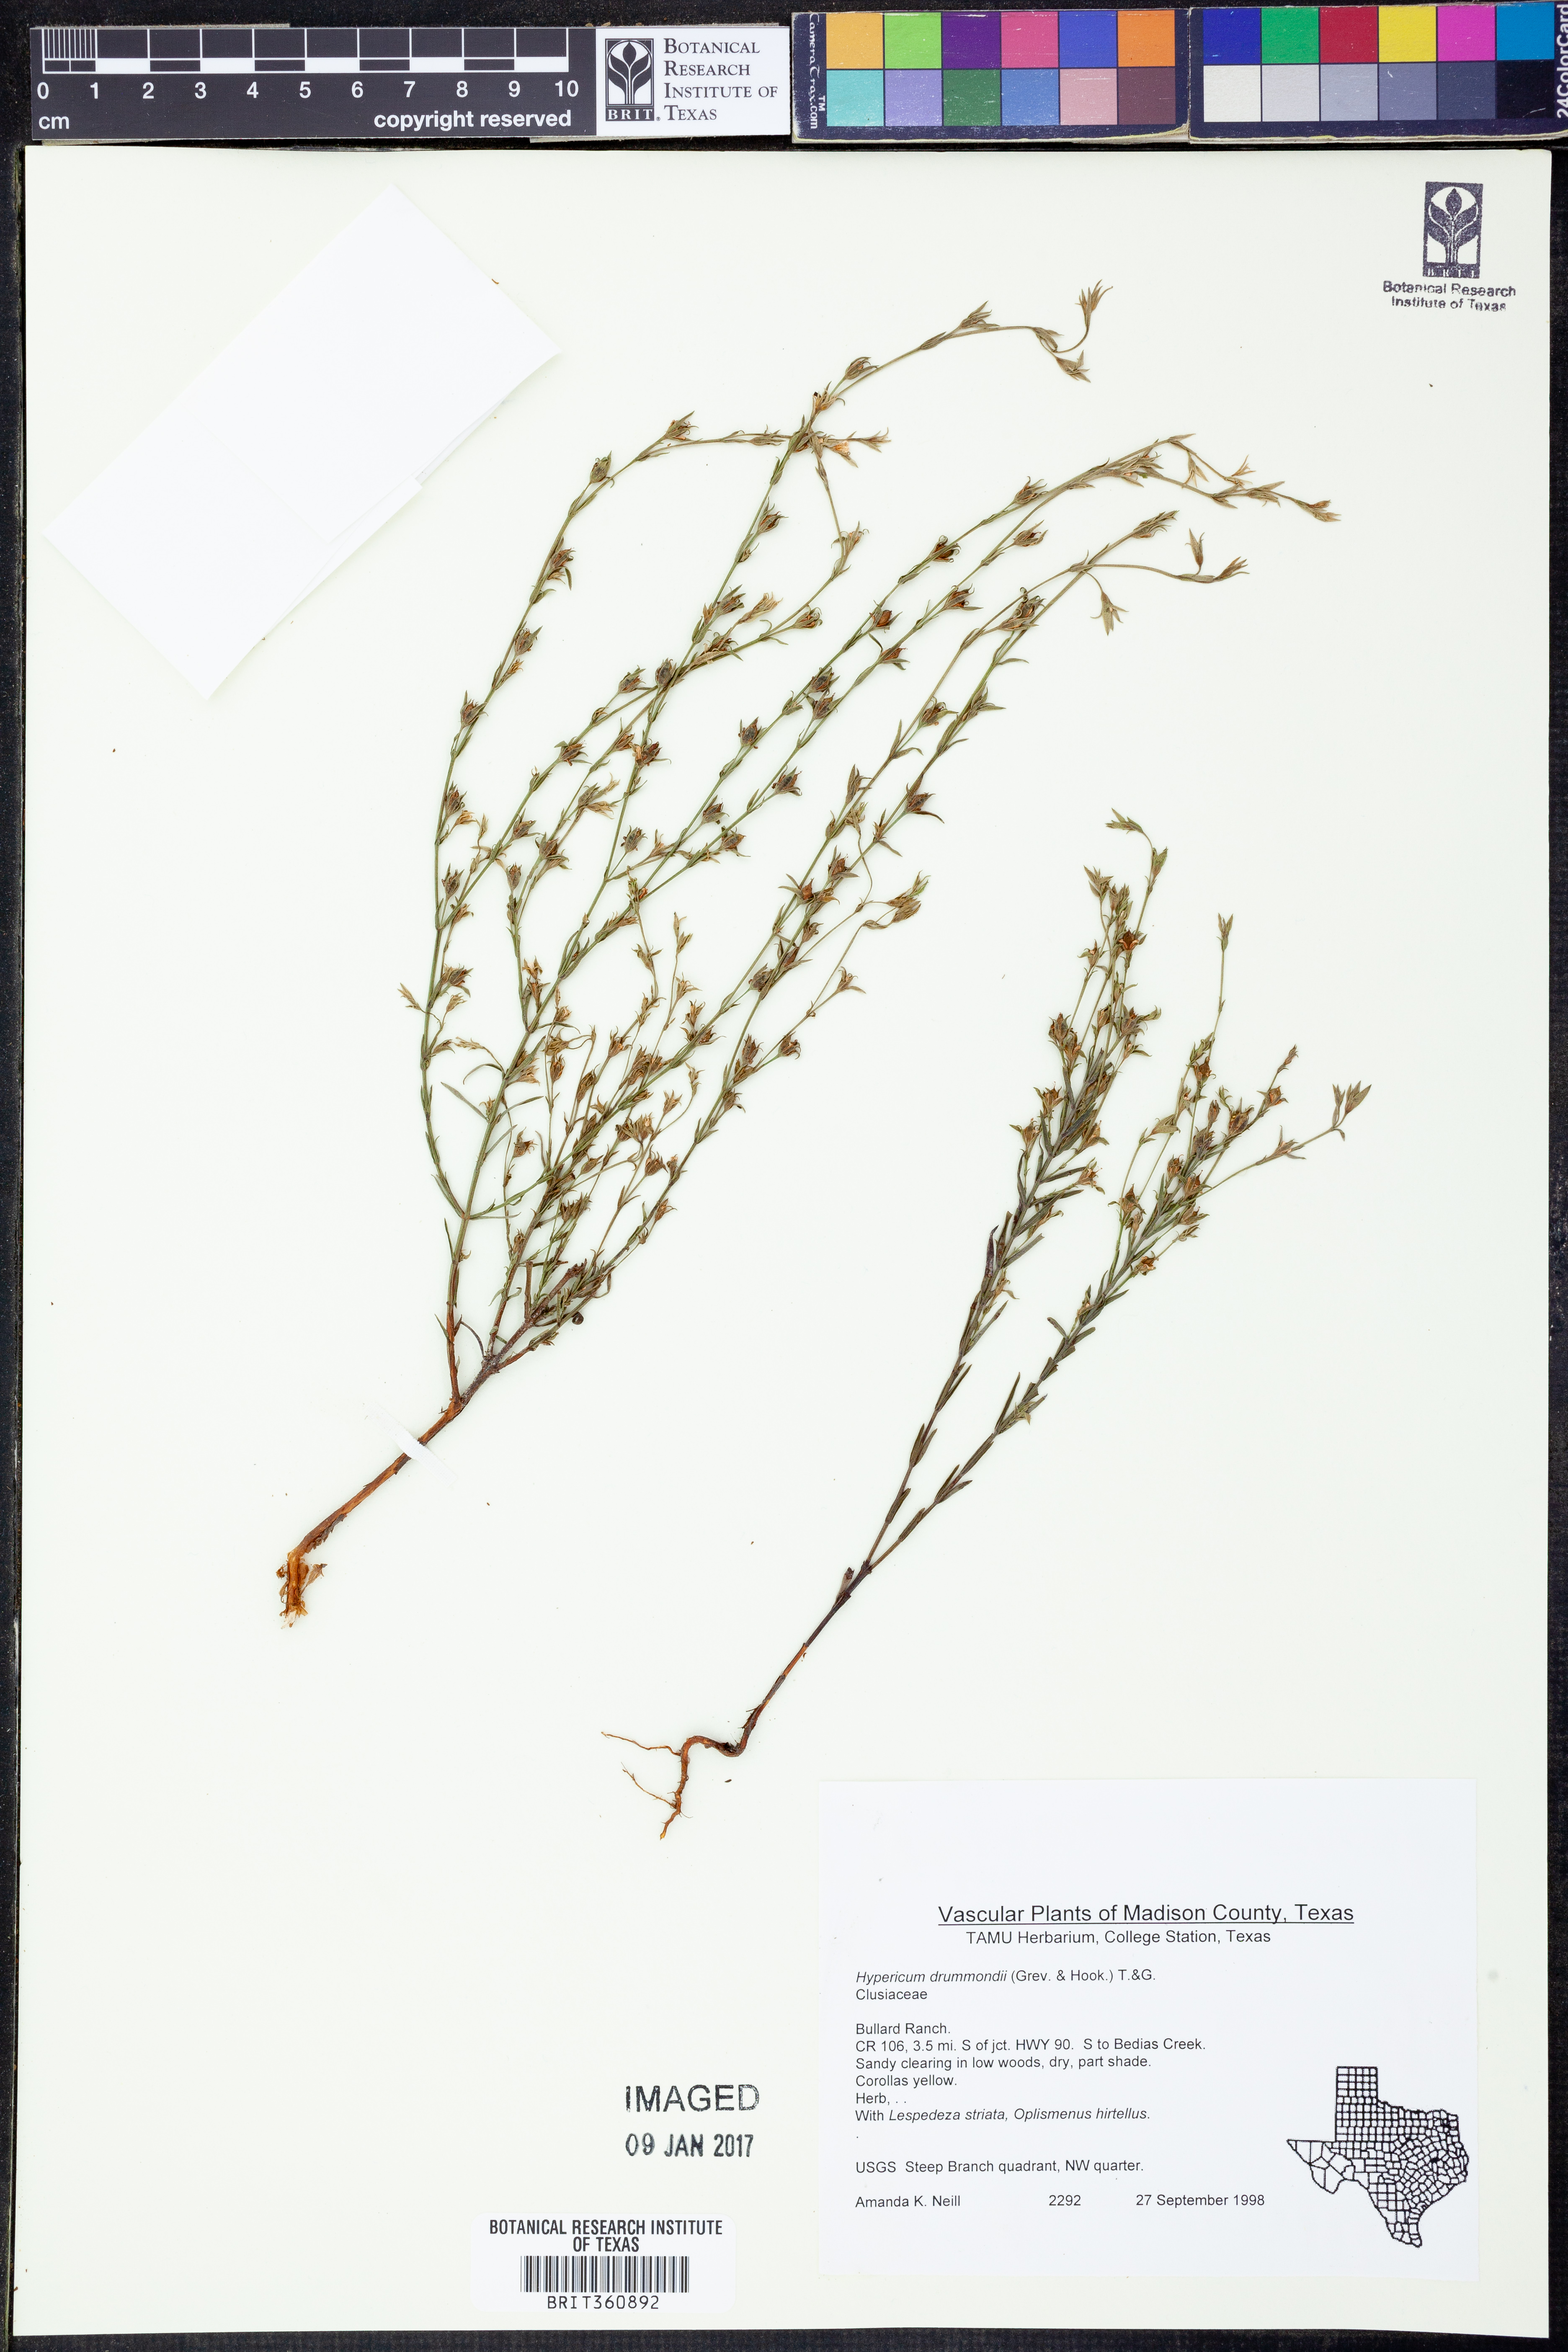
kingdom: Plantae
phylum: Tracheophyta
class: Magnoliopsida
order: Malpighiales
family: Hypericaceae
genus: Hypericum
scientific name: Hypericum drummondii
